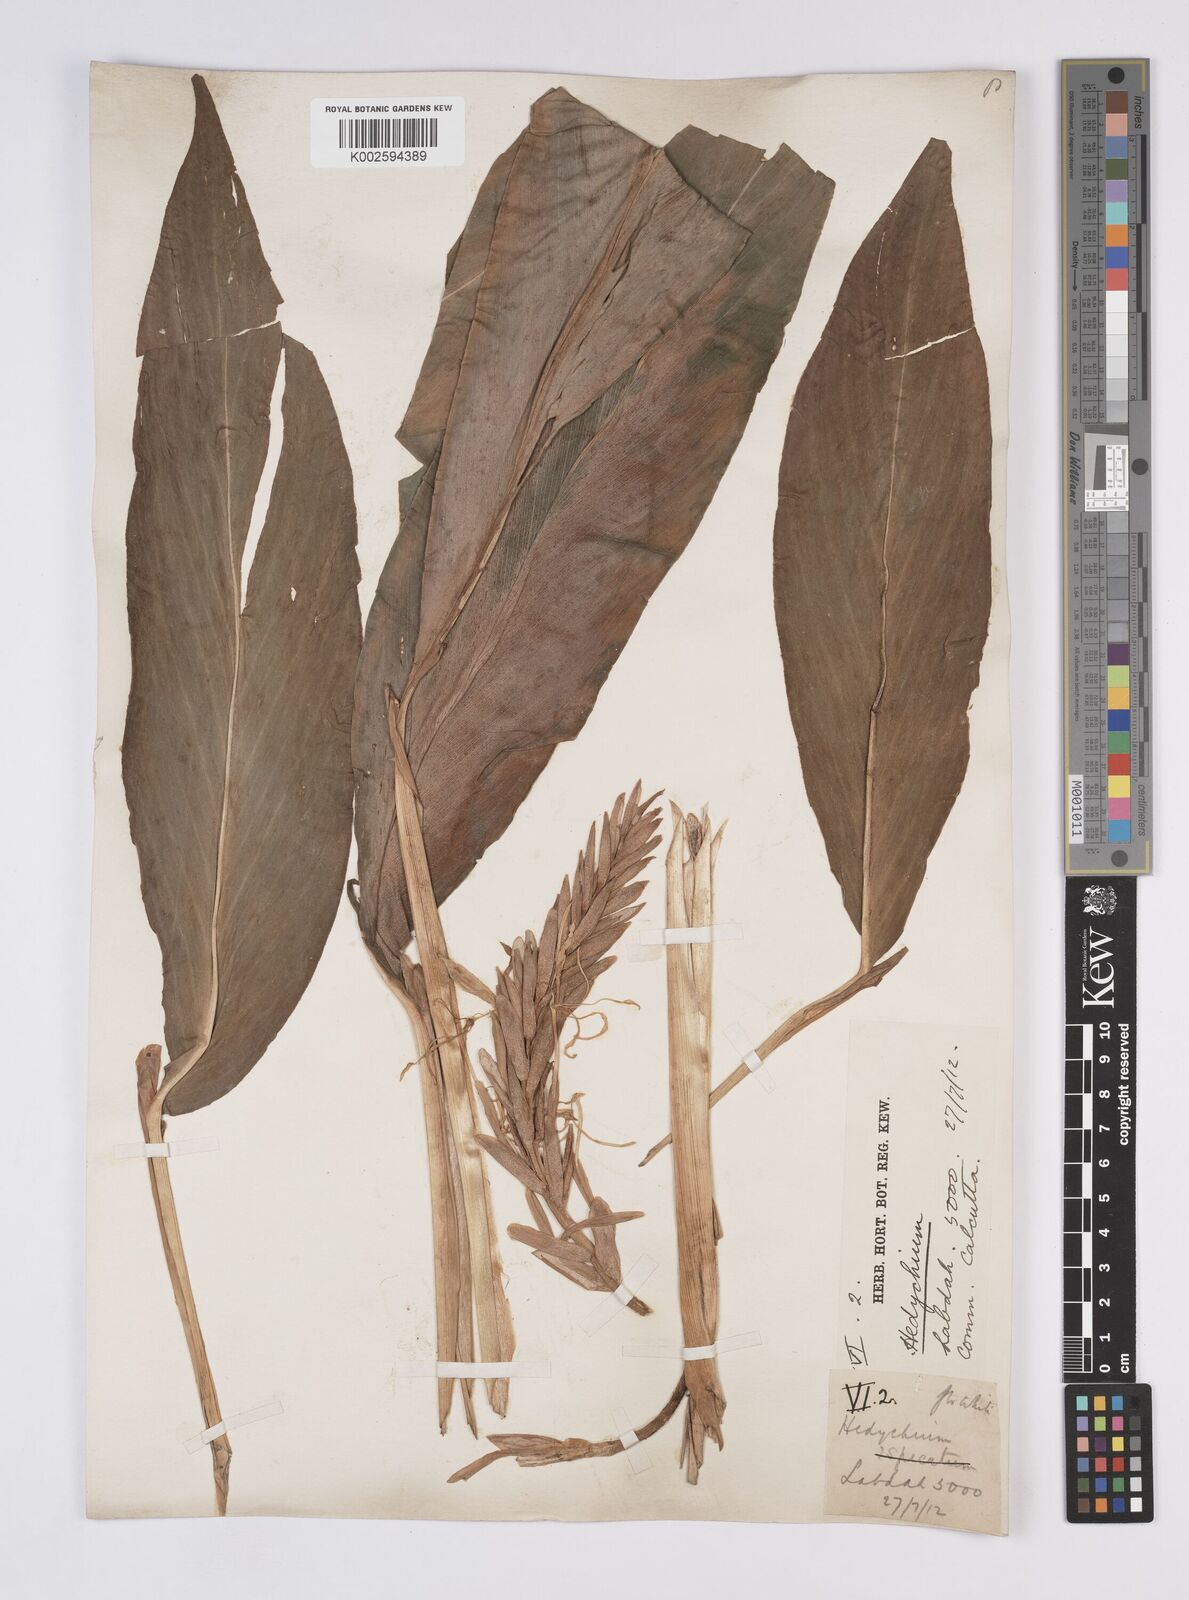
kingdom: Plantae
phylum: Tracheophyta
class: Liliopsida
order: Zingiberales
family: Zingiberaceae
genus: Hedychium
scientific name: Hedychium
